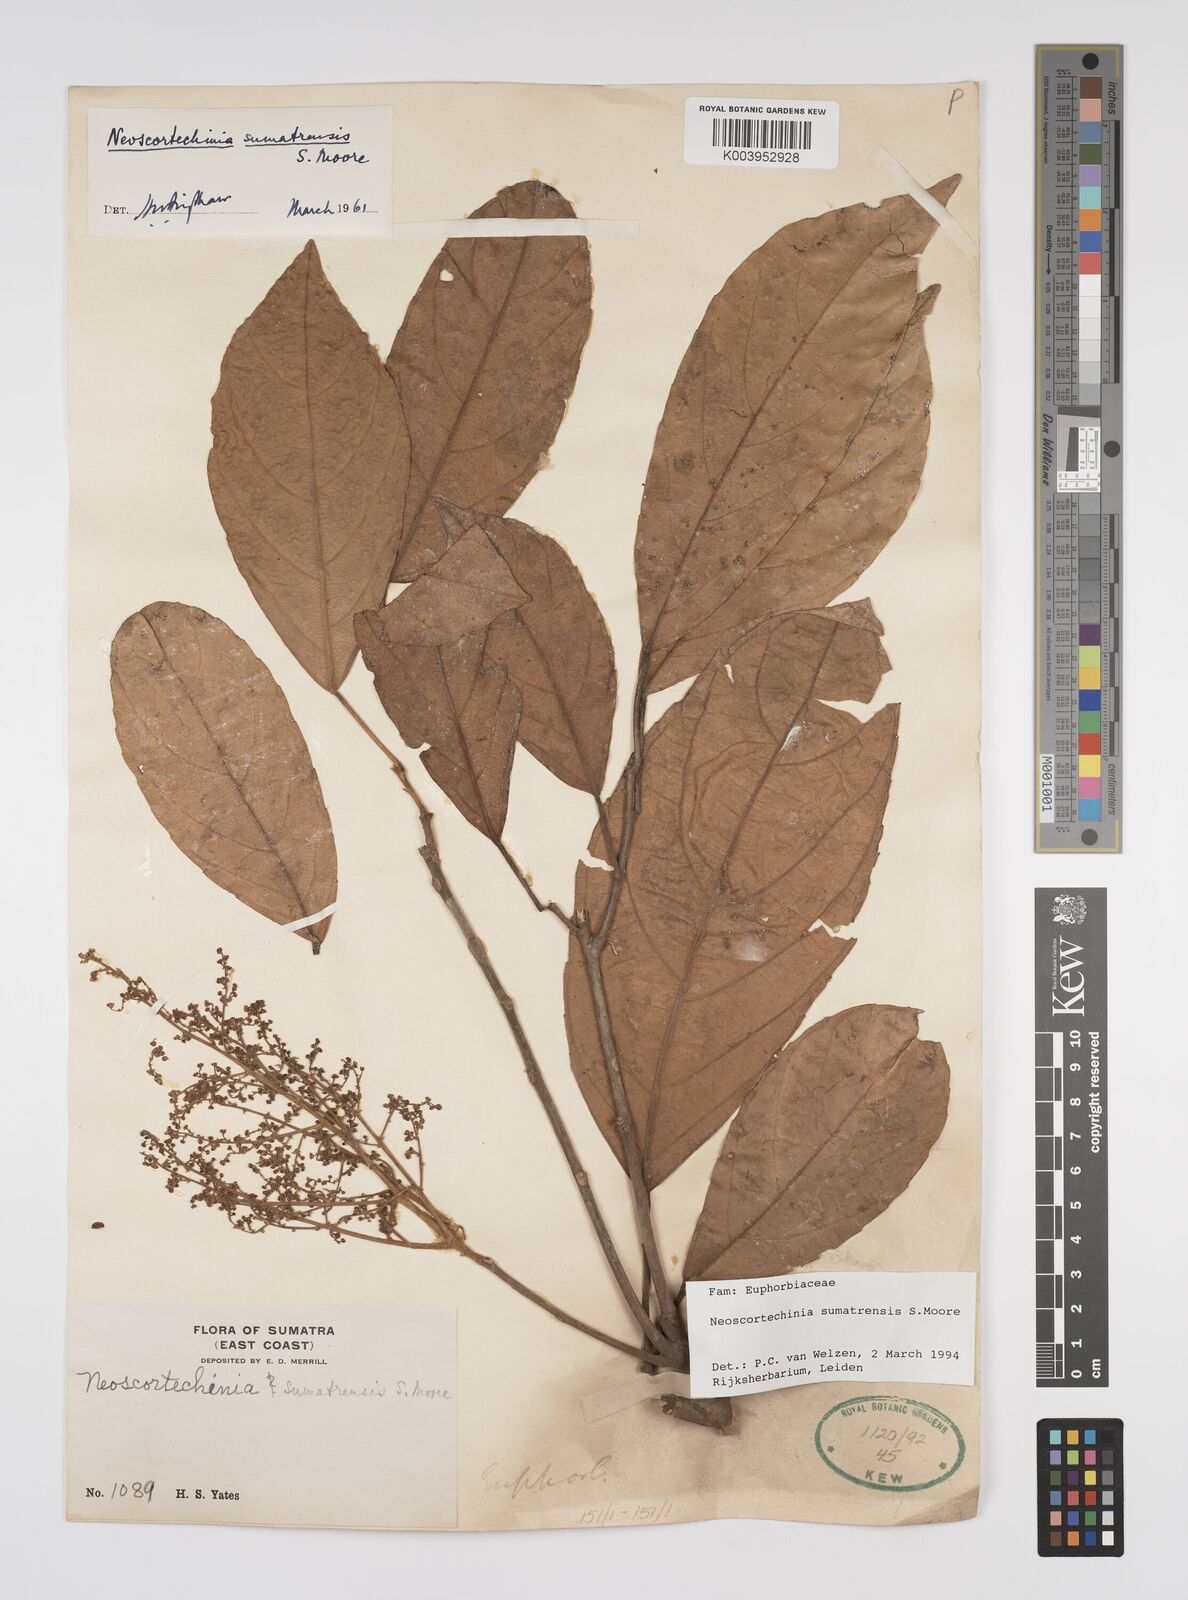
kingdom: Plantae
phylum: Tracheophyta
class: Magnoliopsida
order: Malpighiales
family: Euphorbiaceae
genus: Neoscortechinia
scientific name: Neoscortechinia sumatrensis
